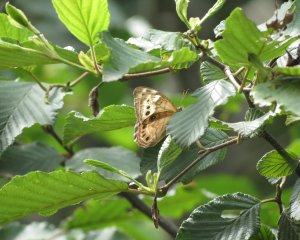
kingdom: Animalia
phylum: Arthropoda
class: Insecta
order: Lepidoptera
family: Nymphalidae
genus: Lethe
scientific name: Lethe anthedon
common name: Northern Pearly-Eye
